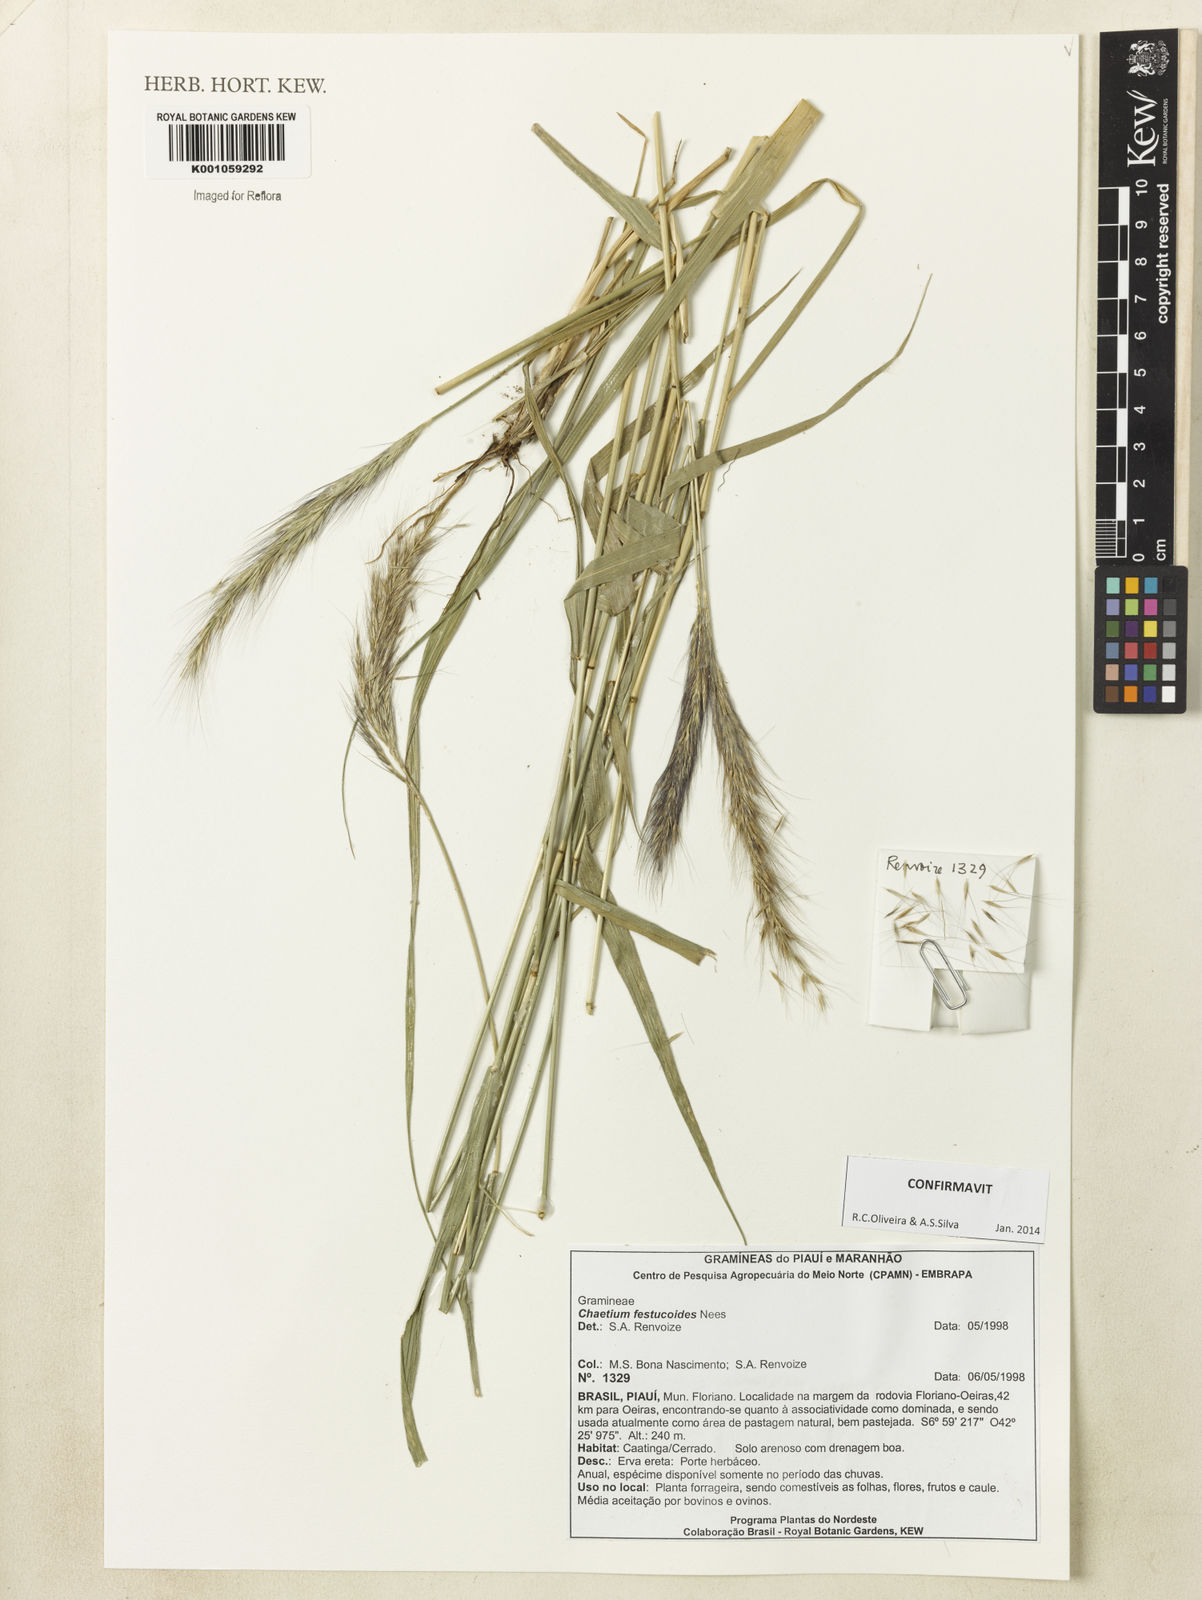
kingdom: Plantae
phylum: Tracheophyta
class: Liliopsida
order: Poales
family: Poaceae
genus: Chaetium
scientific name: Chaetium festucoides
